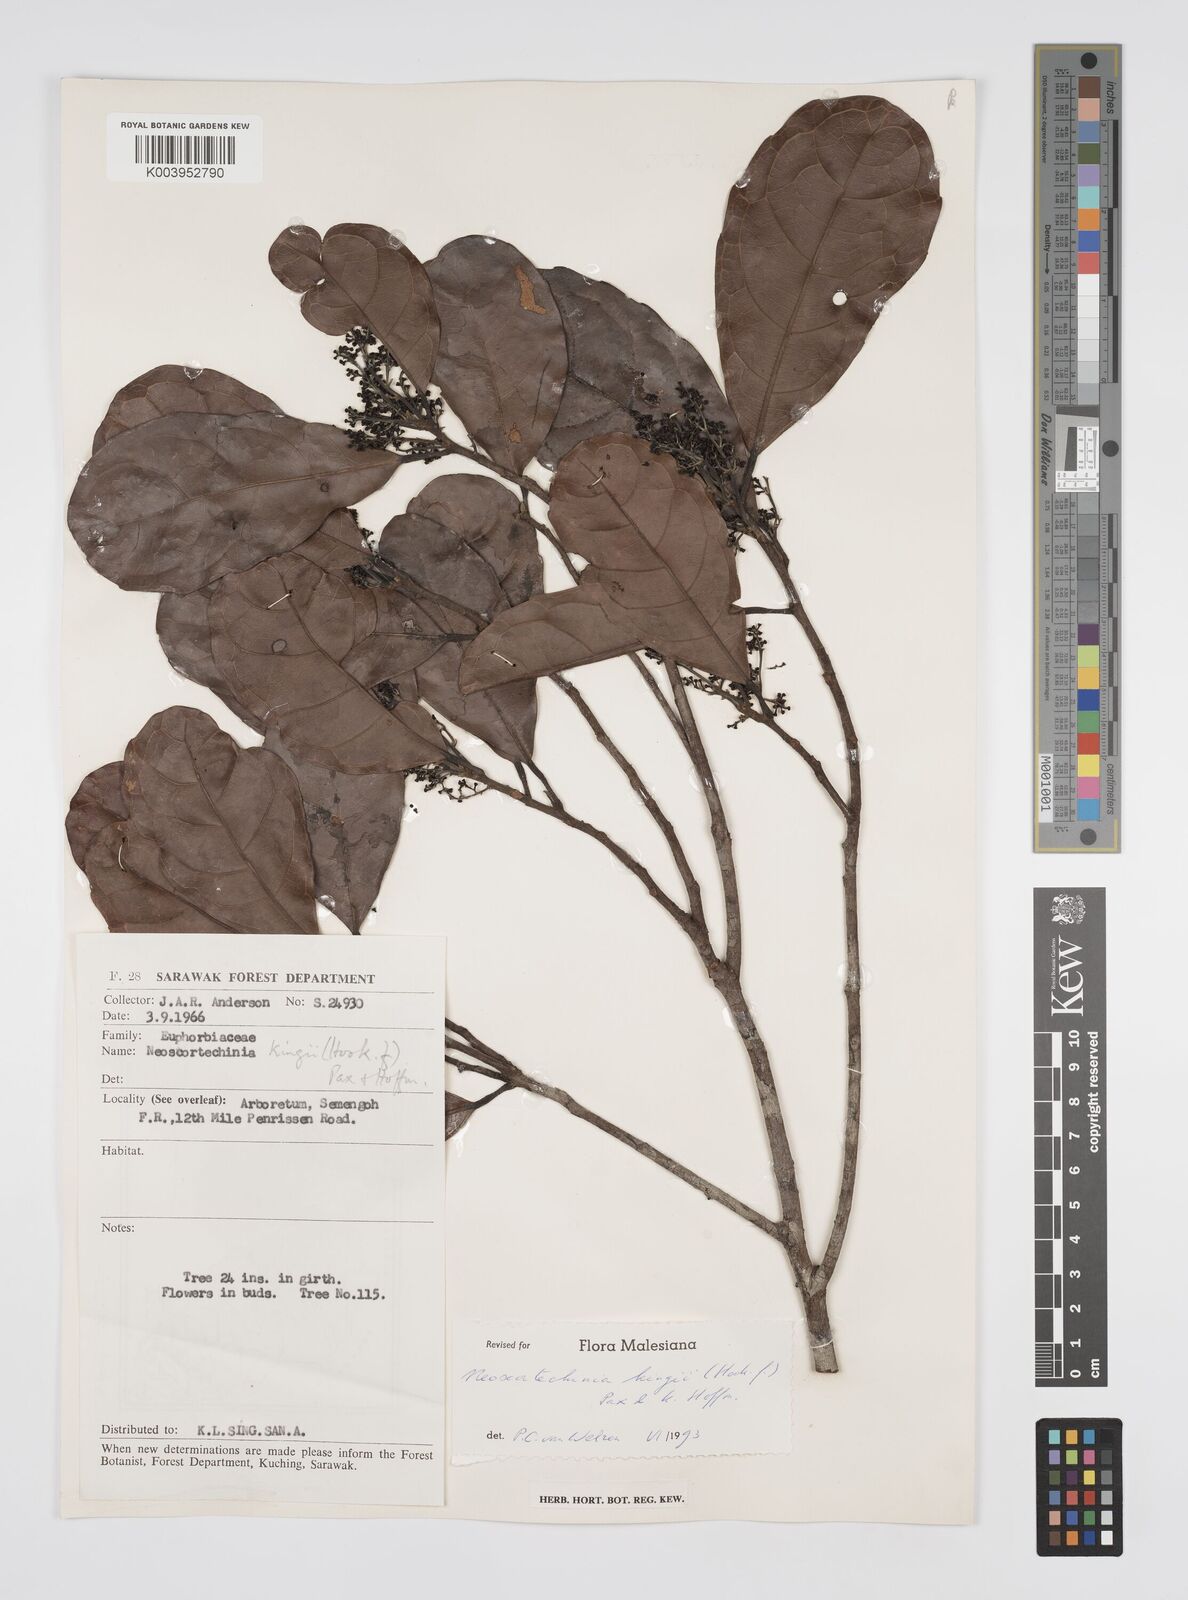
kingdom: Plantae
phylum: Tracheophyta
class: Magnoliopsida
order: Malpighiales
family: Euphorbiaceae
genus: Neoscortechinia
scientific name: Neoscortechinia kingii
